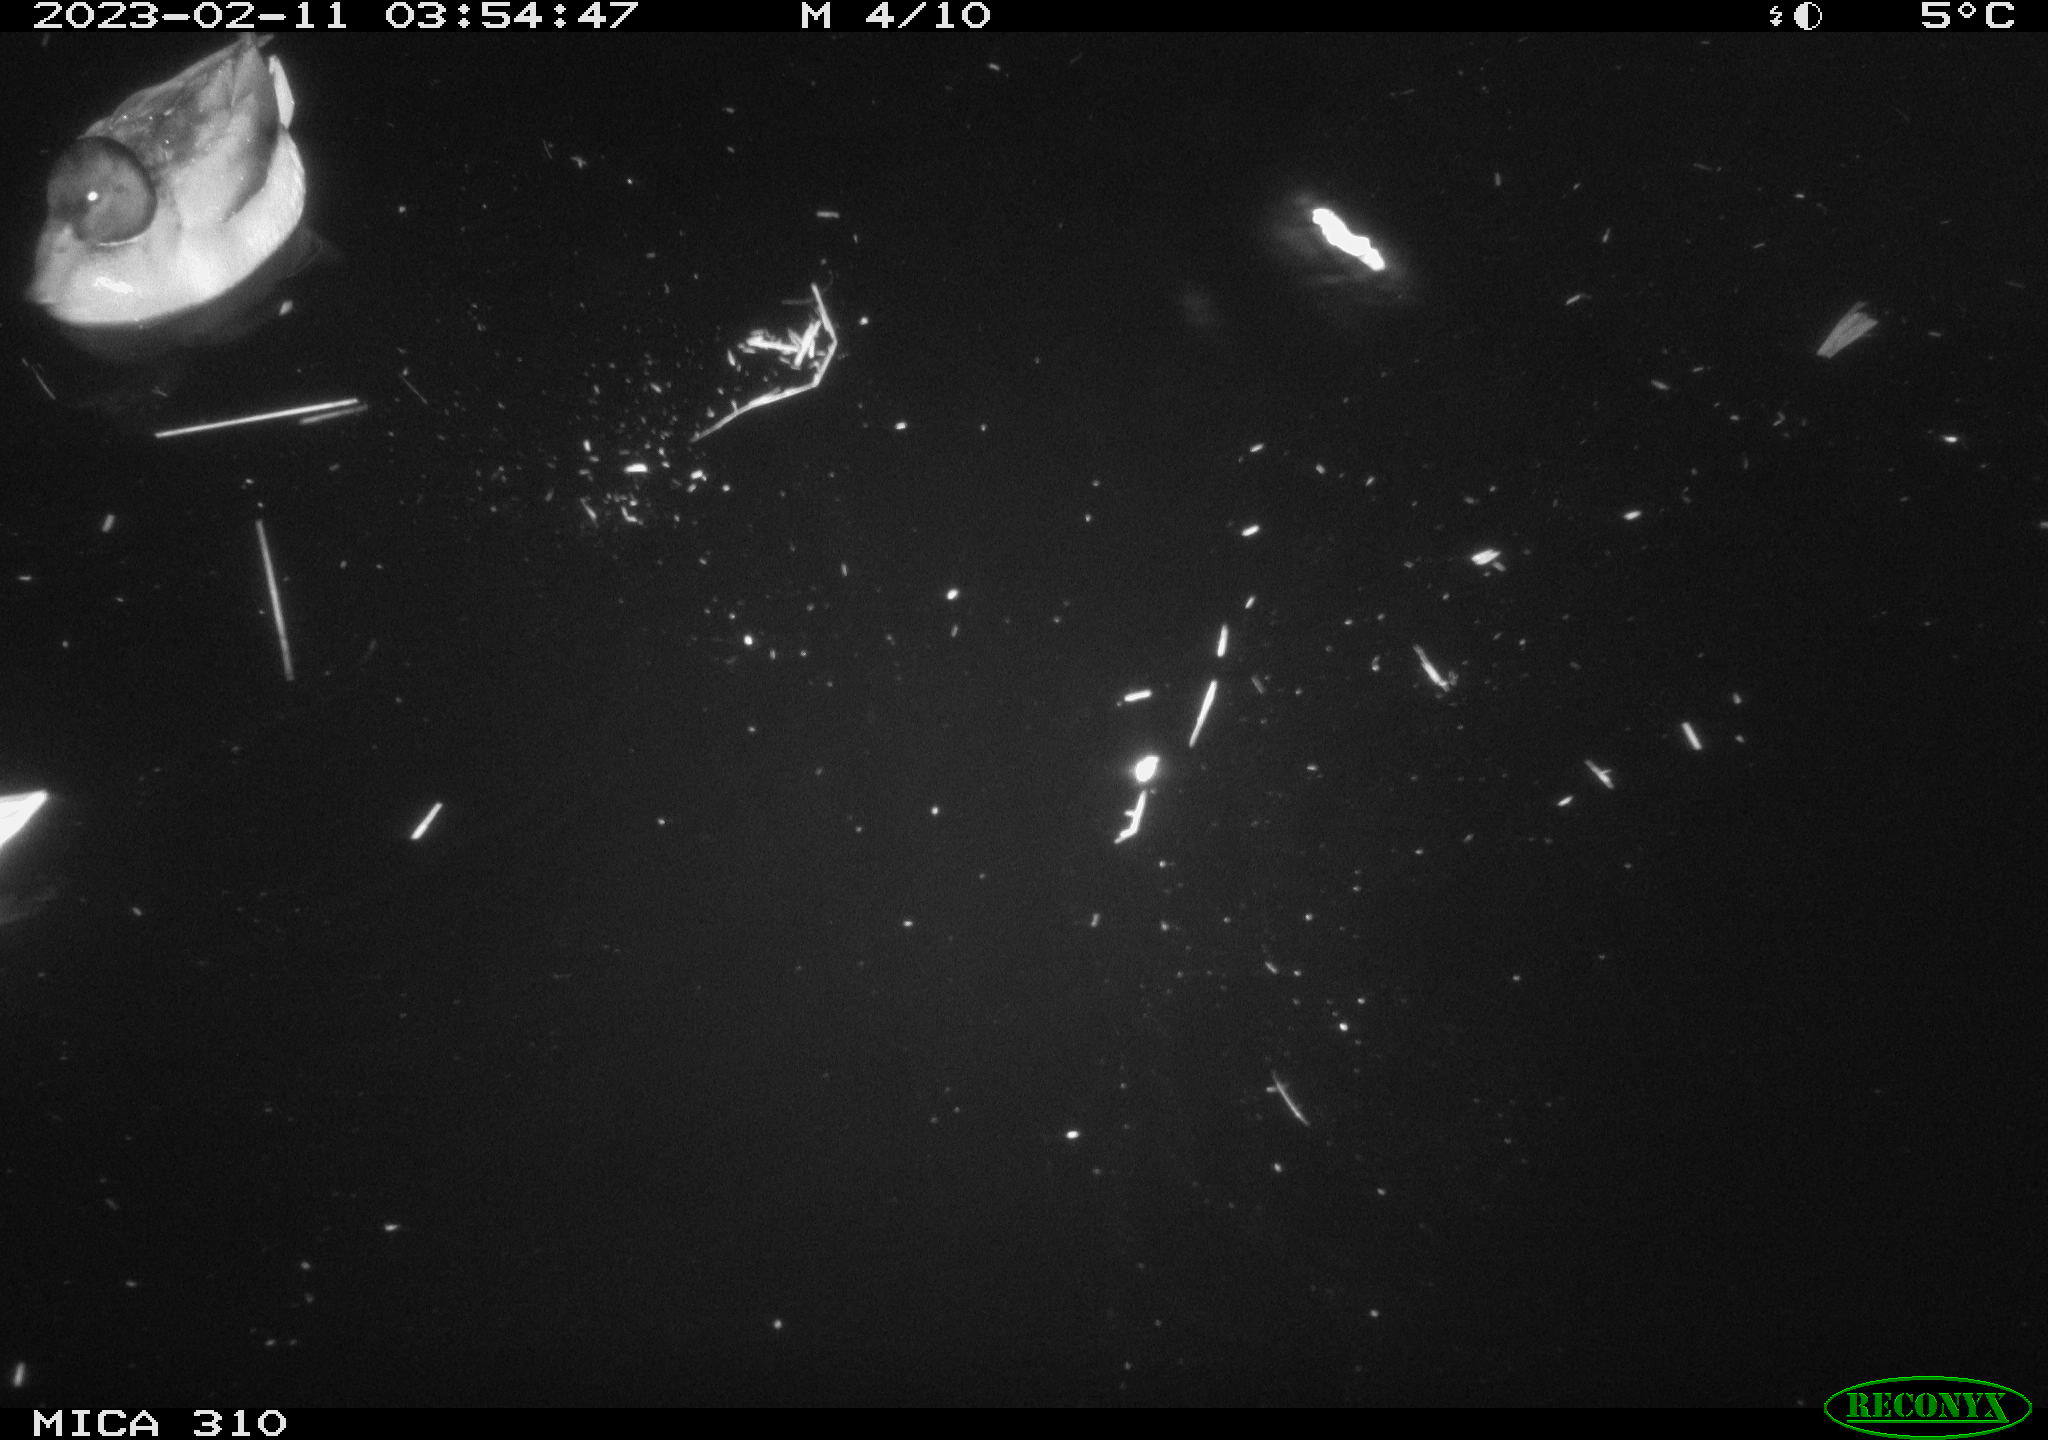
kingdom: Animalia
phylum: Chordata
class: Aves
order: Anseriformes
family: Anatidae
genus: Anas
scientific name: Anas
